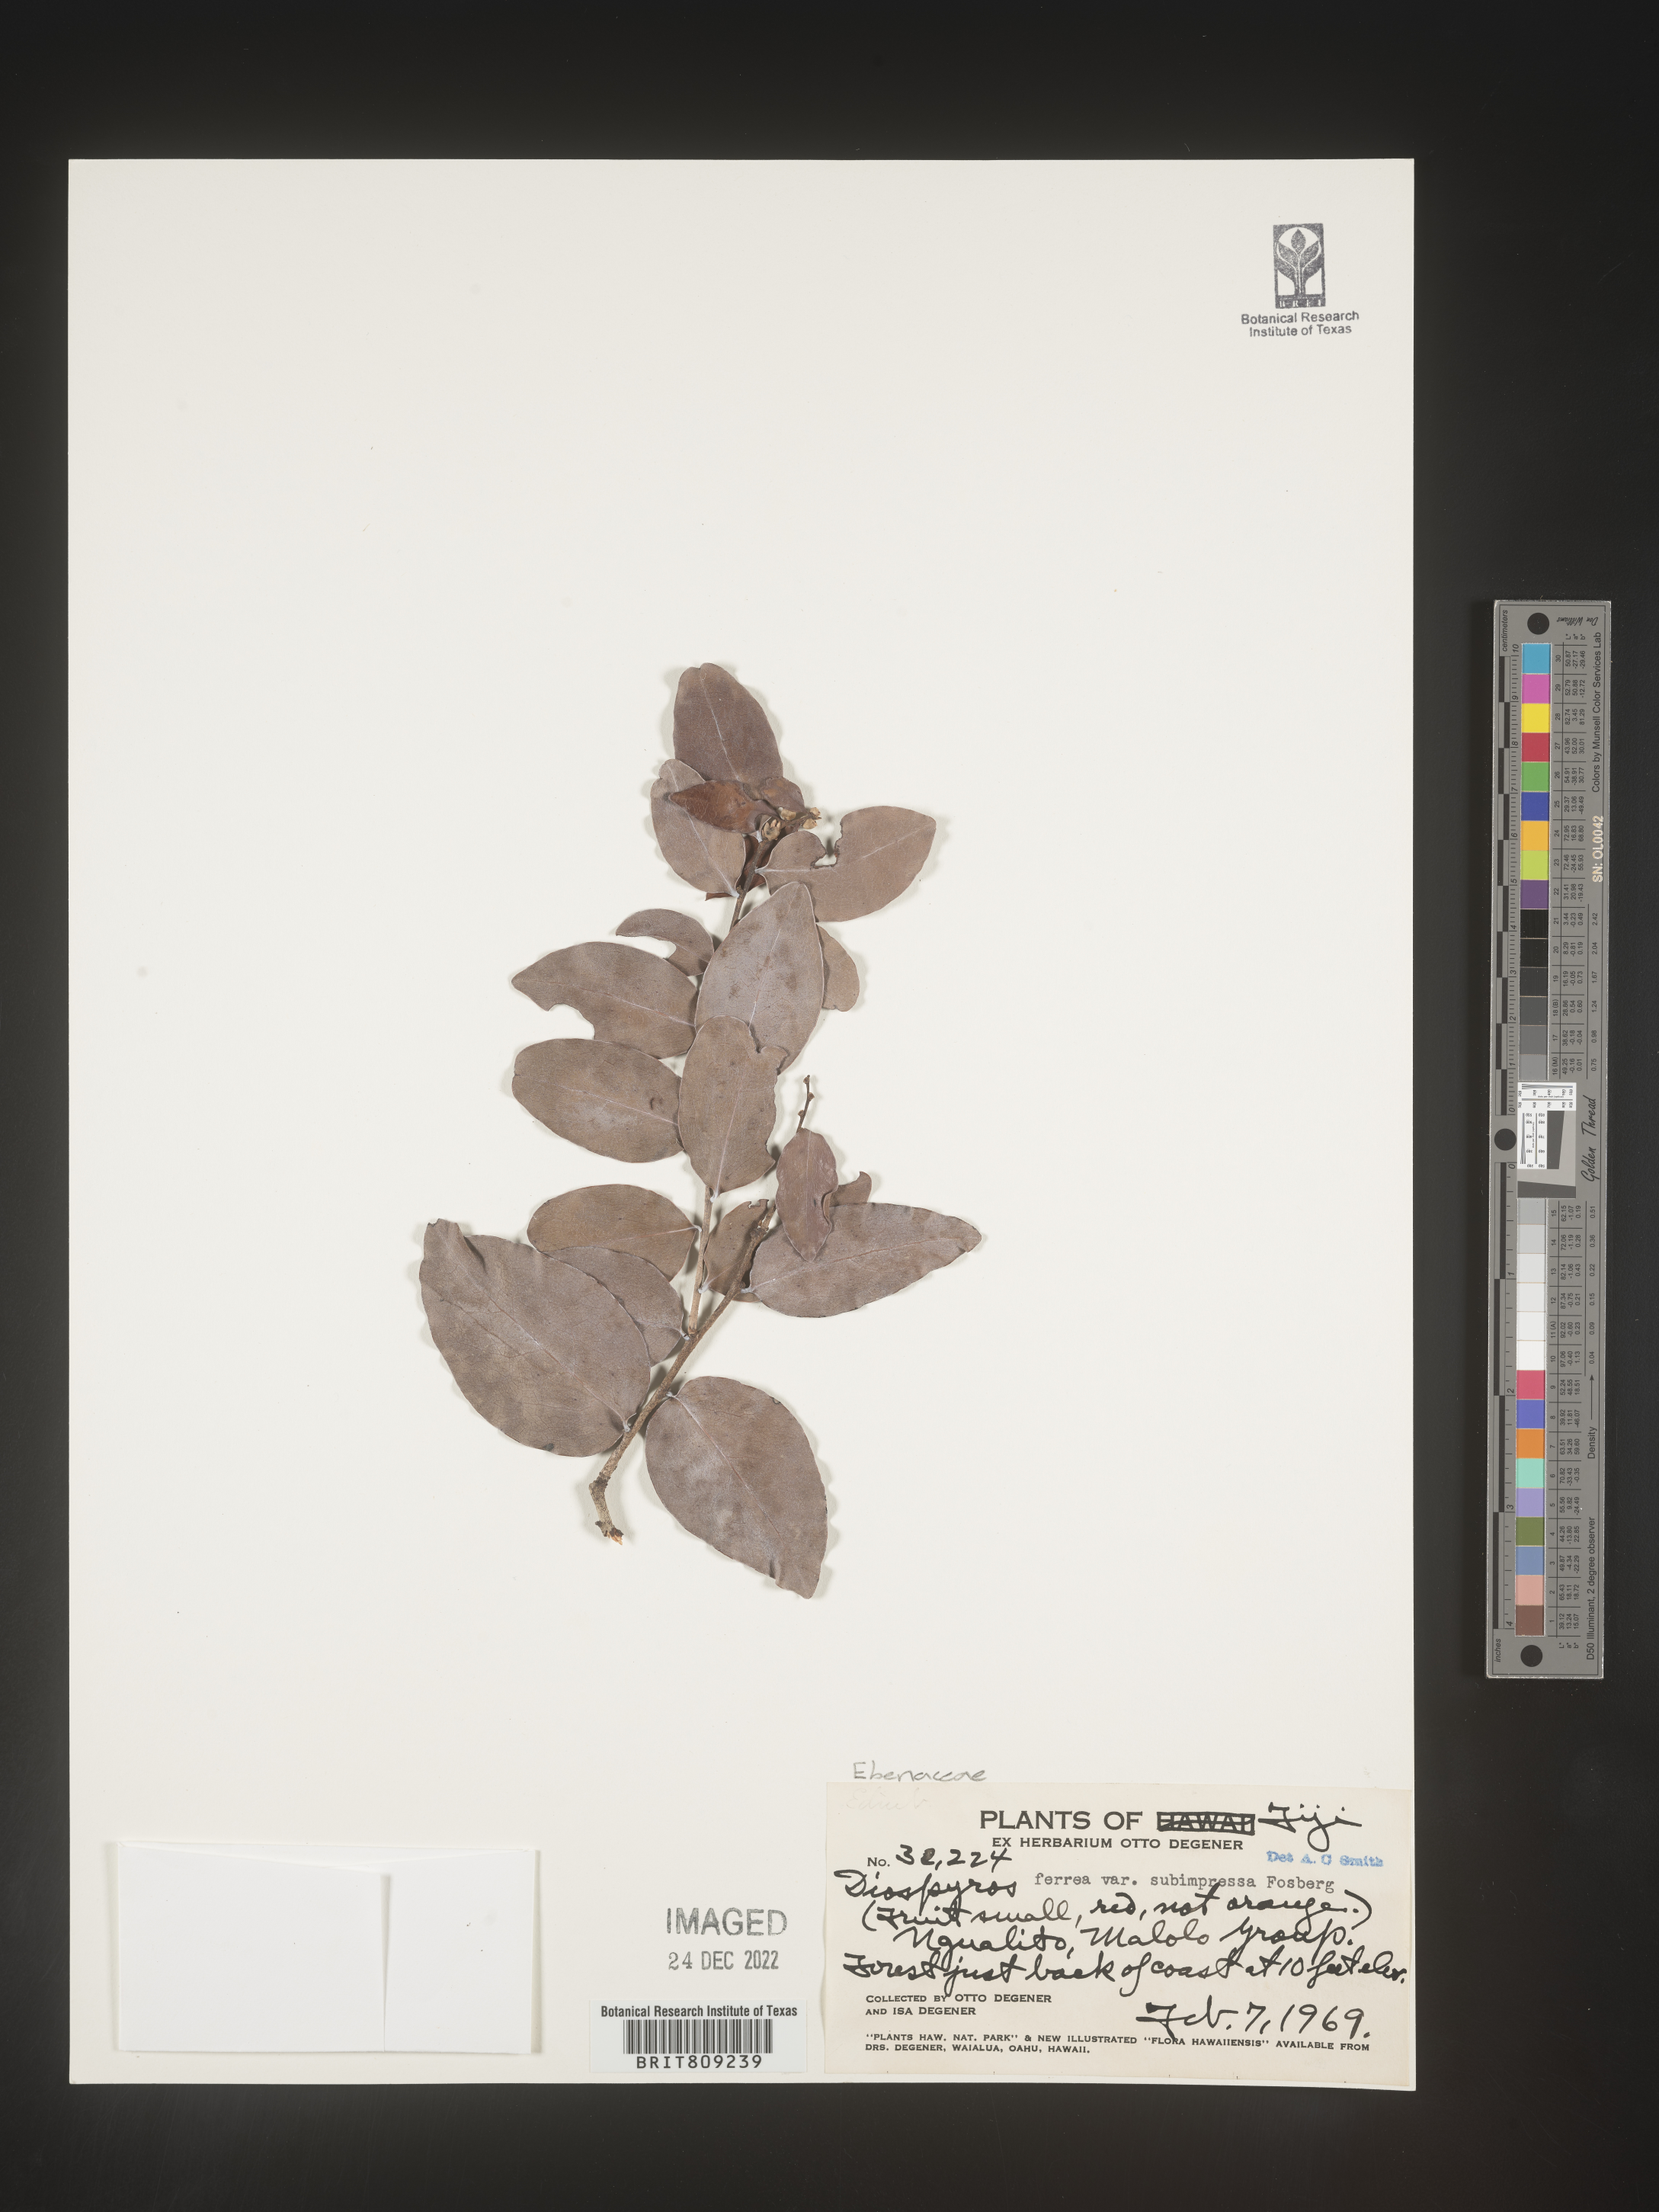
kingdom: Plantae
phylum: Tracheophyta
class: Magnoliopsida
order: Ericales
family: Ebenaceae
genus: Diospyros
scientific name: Diospyros
